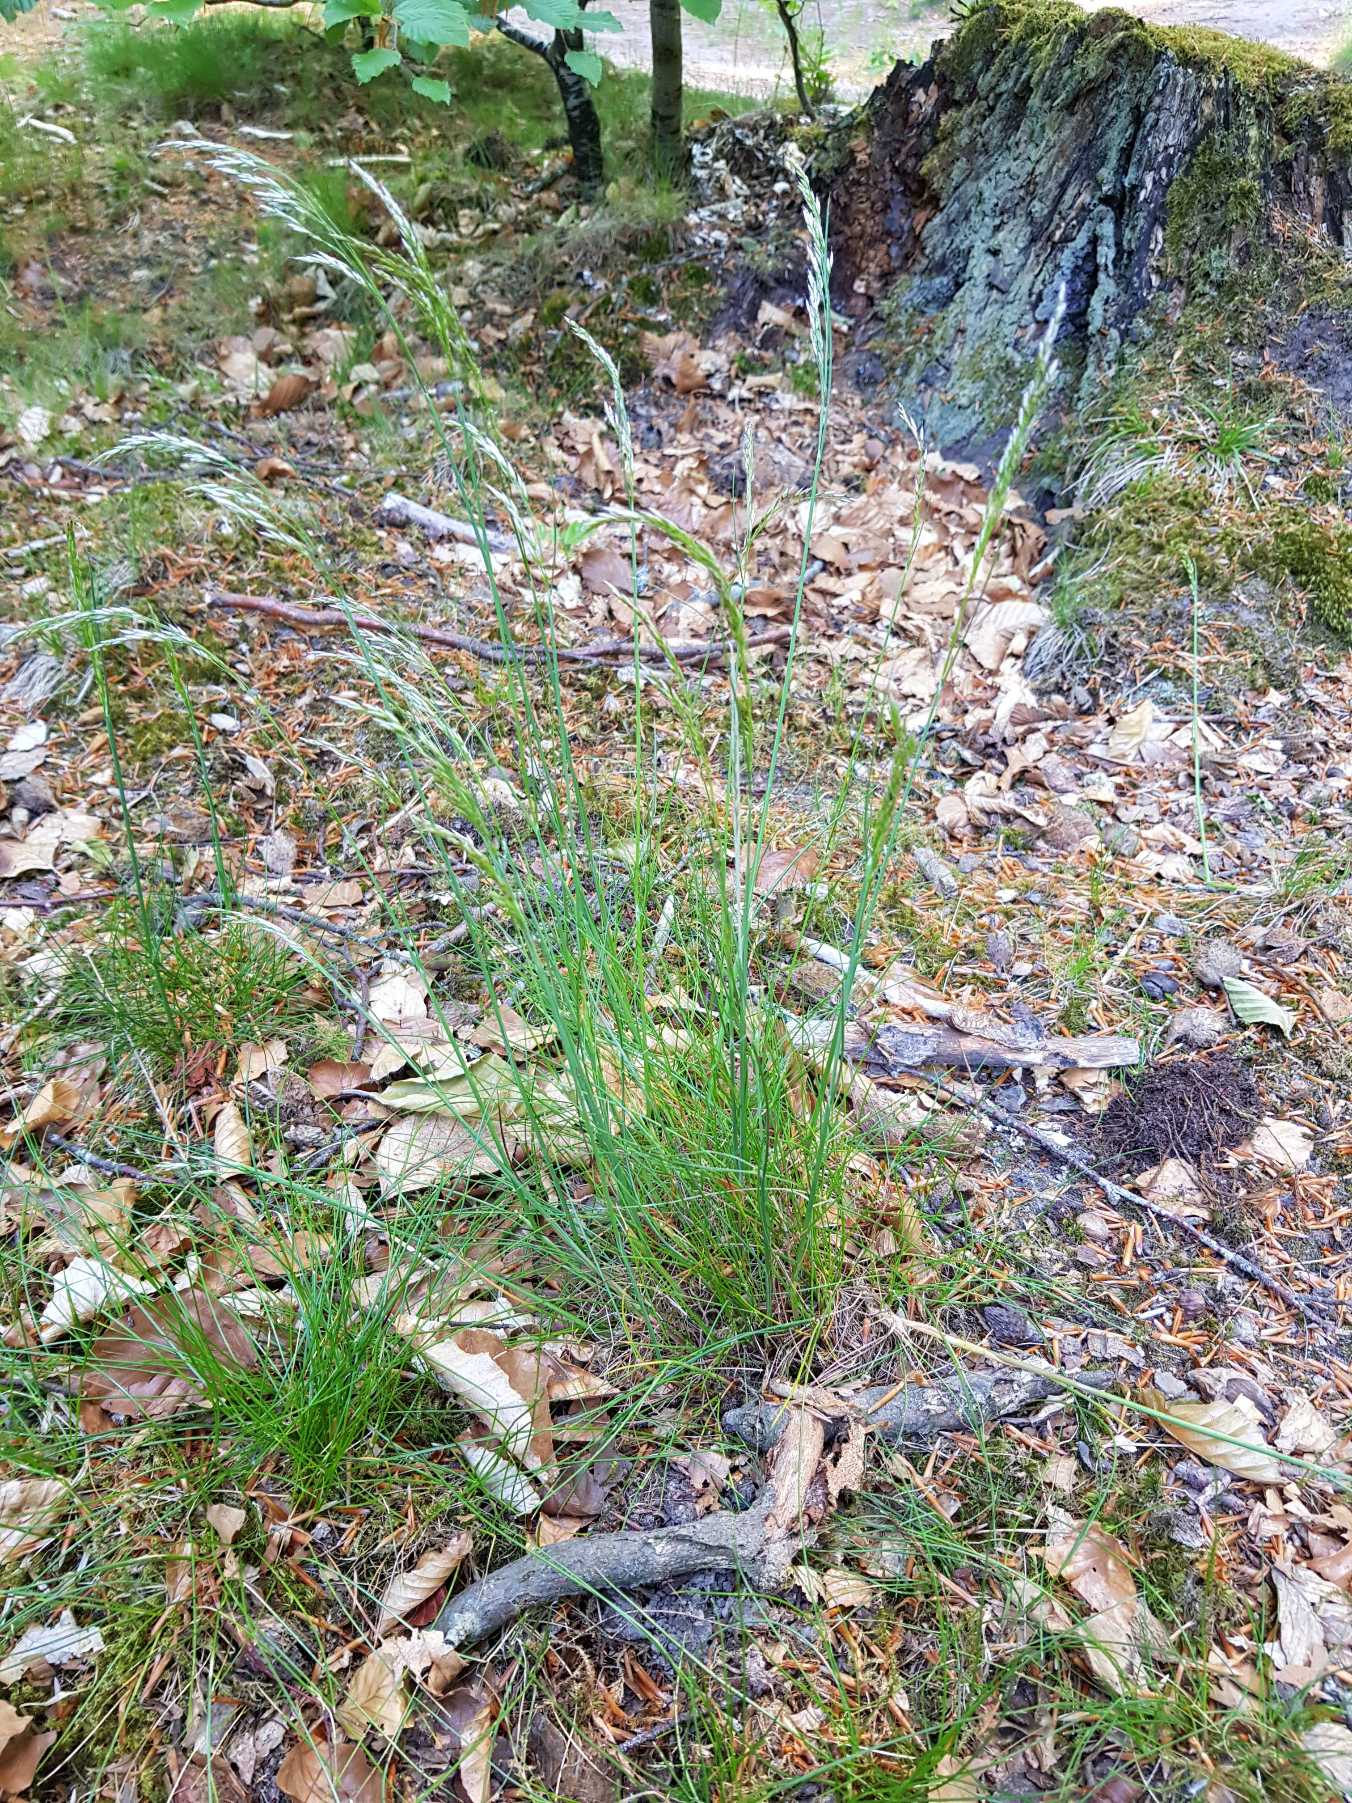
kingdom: Plantae
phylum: Tracheophyta
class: Liliopsida
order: Poales
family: Poaceae
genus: Avenella
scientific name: Avenella flexuosa
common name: Bølget bunke
